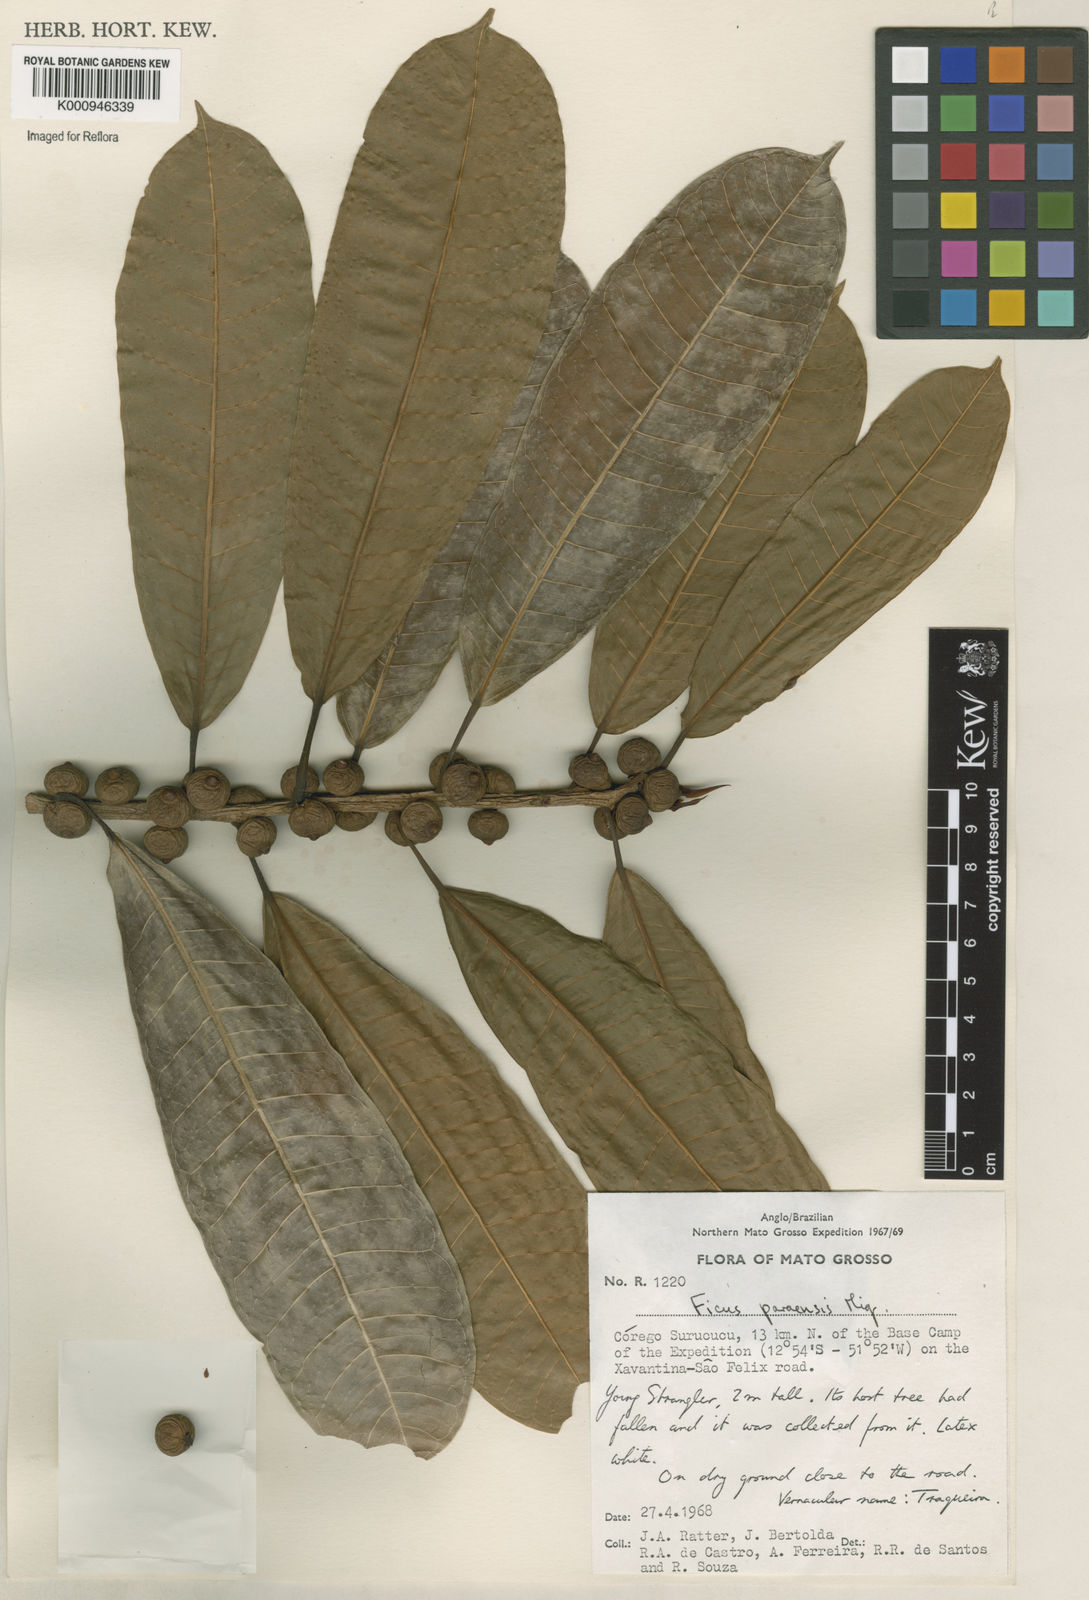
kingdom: Plantae
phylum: Tracheophyta
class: Magnoliopsida
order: Rosales
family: Moraceae
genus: Ficus
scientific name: Ficus paraensis
